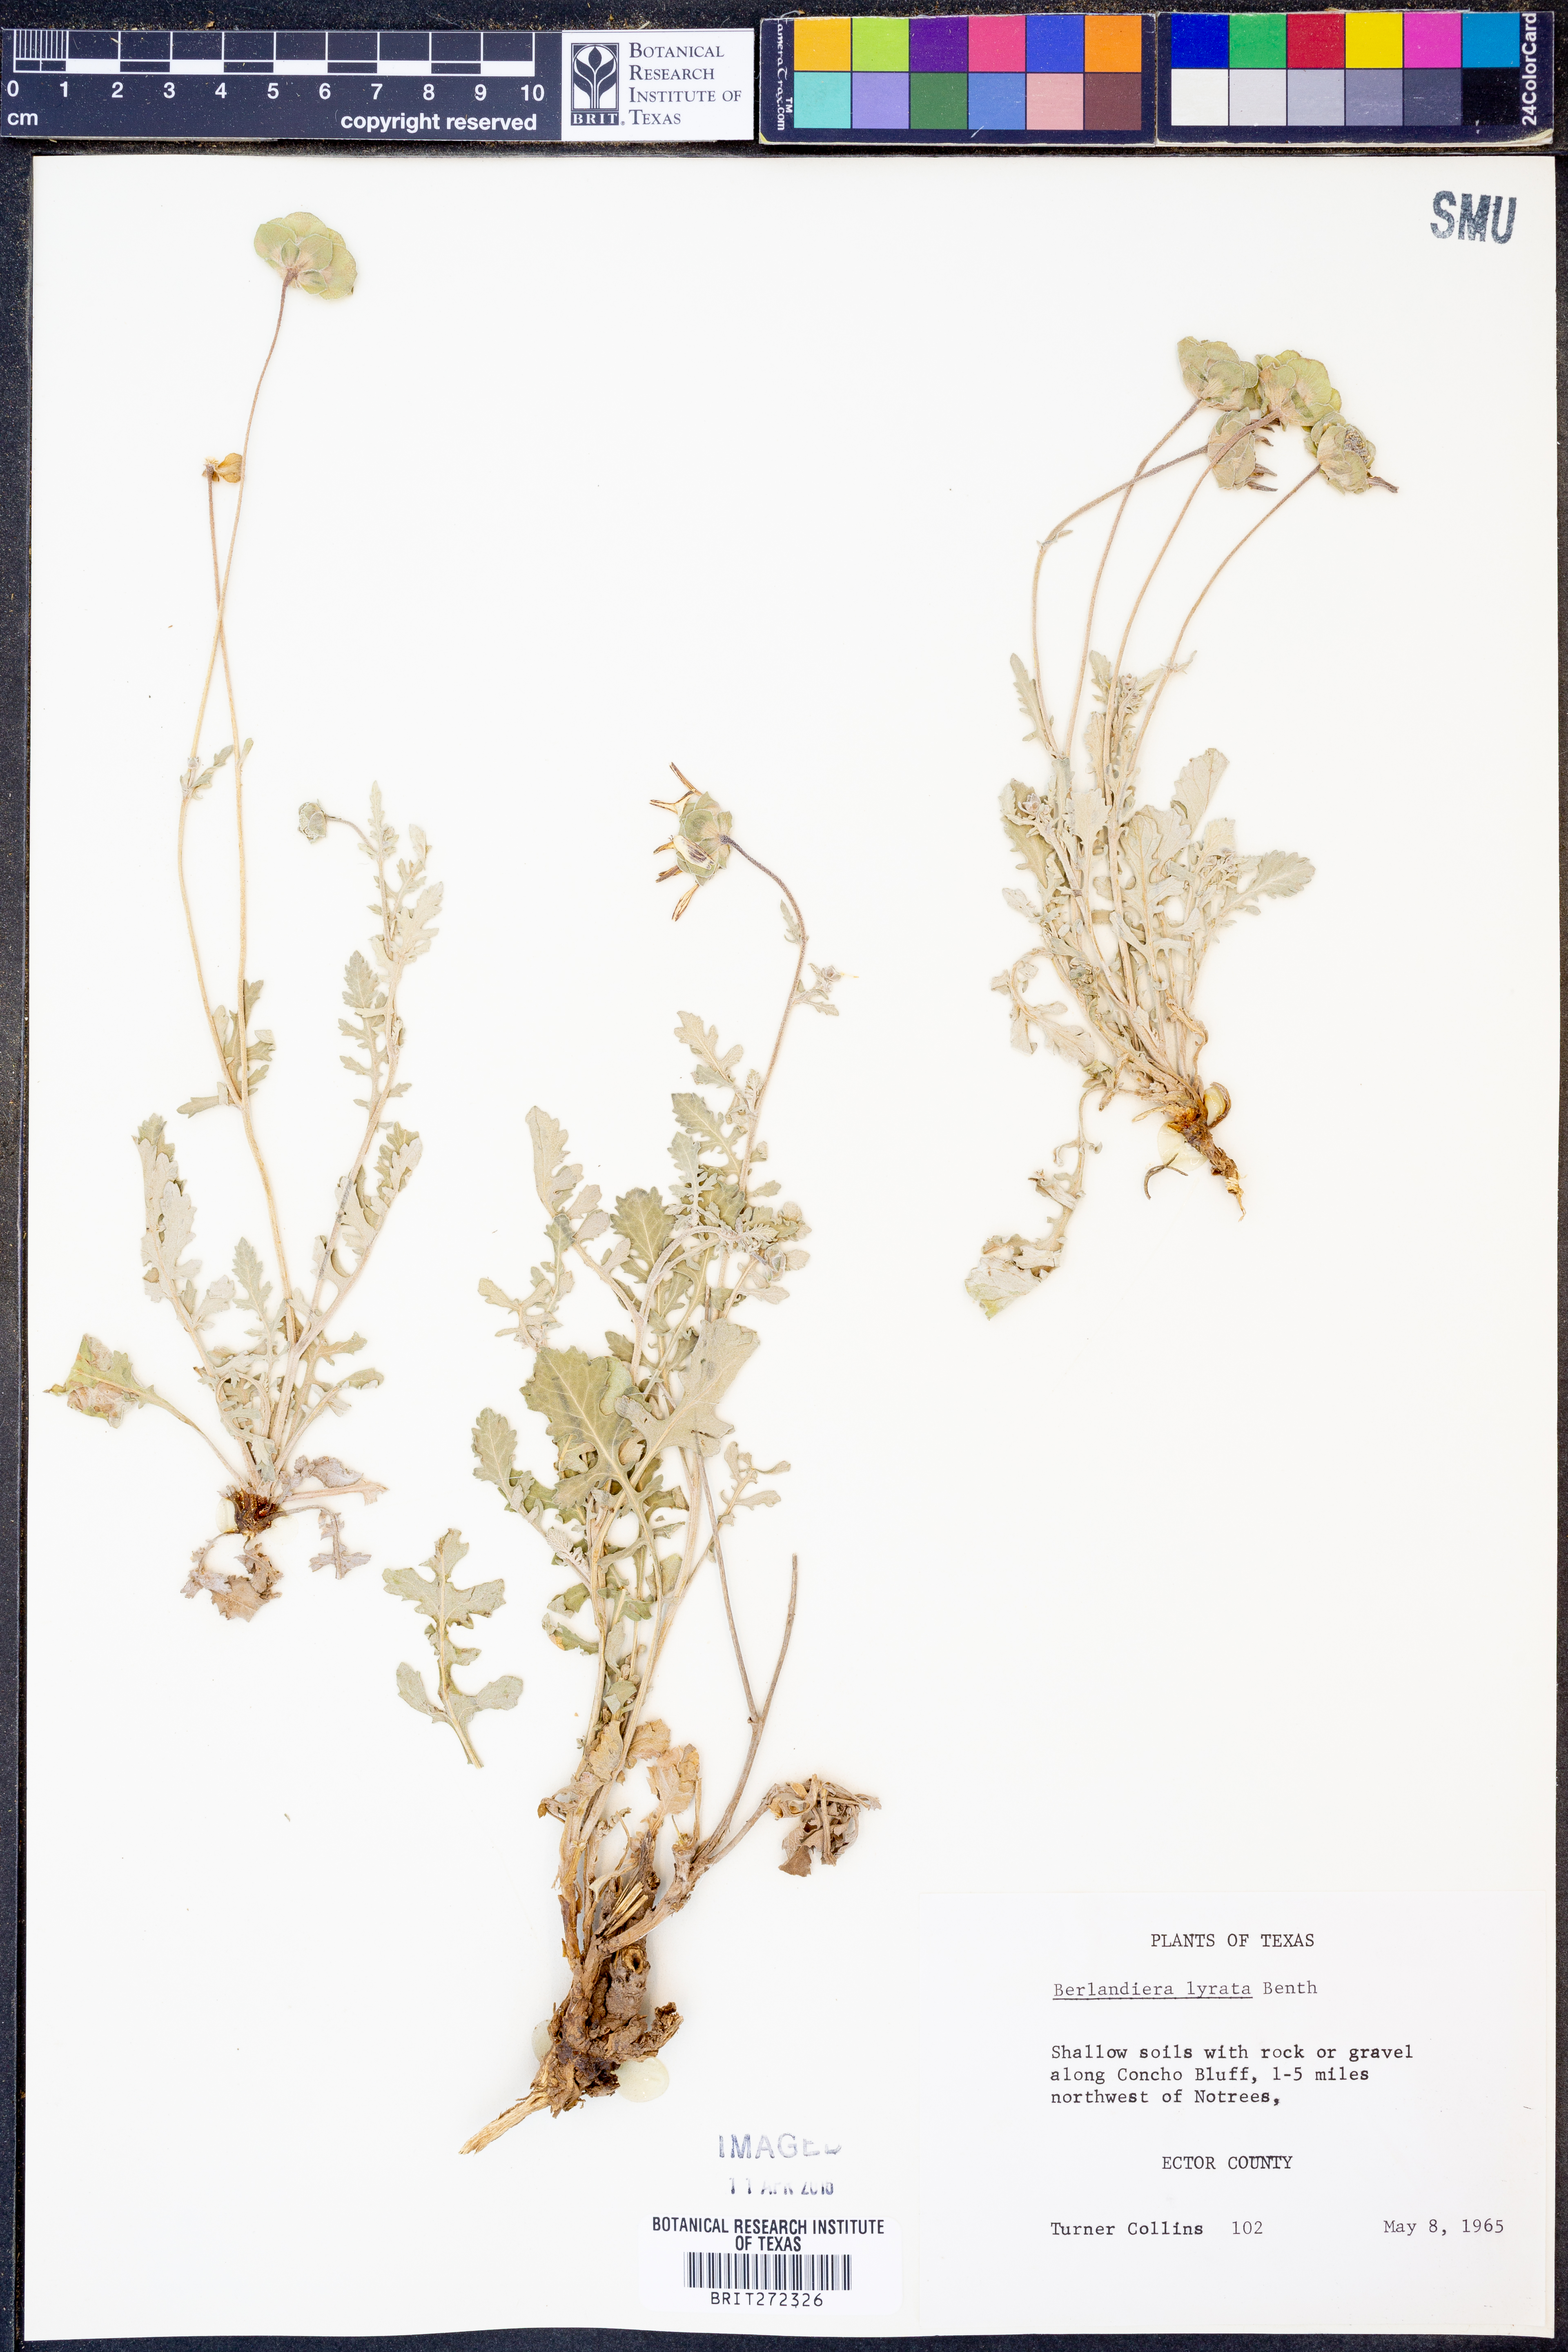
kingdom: Plantae
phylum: Tracheophyta
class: Magnoliopsida
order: Asterales
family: Asteraceae
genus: Berlandiera
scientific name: Berlandiera lyrata
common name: Chocolate-flower
